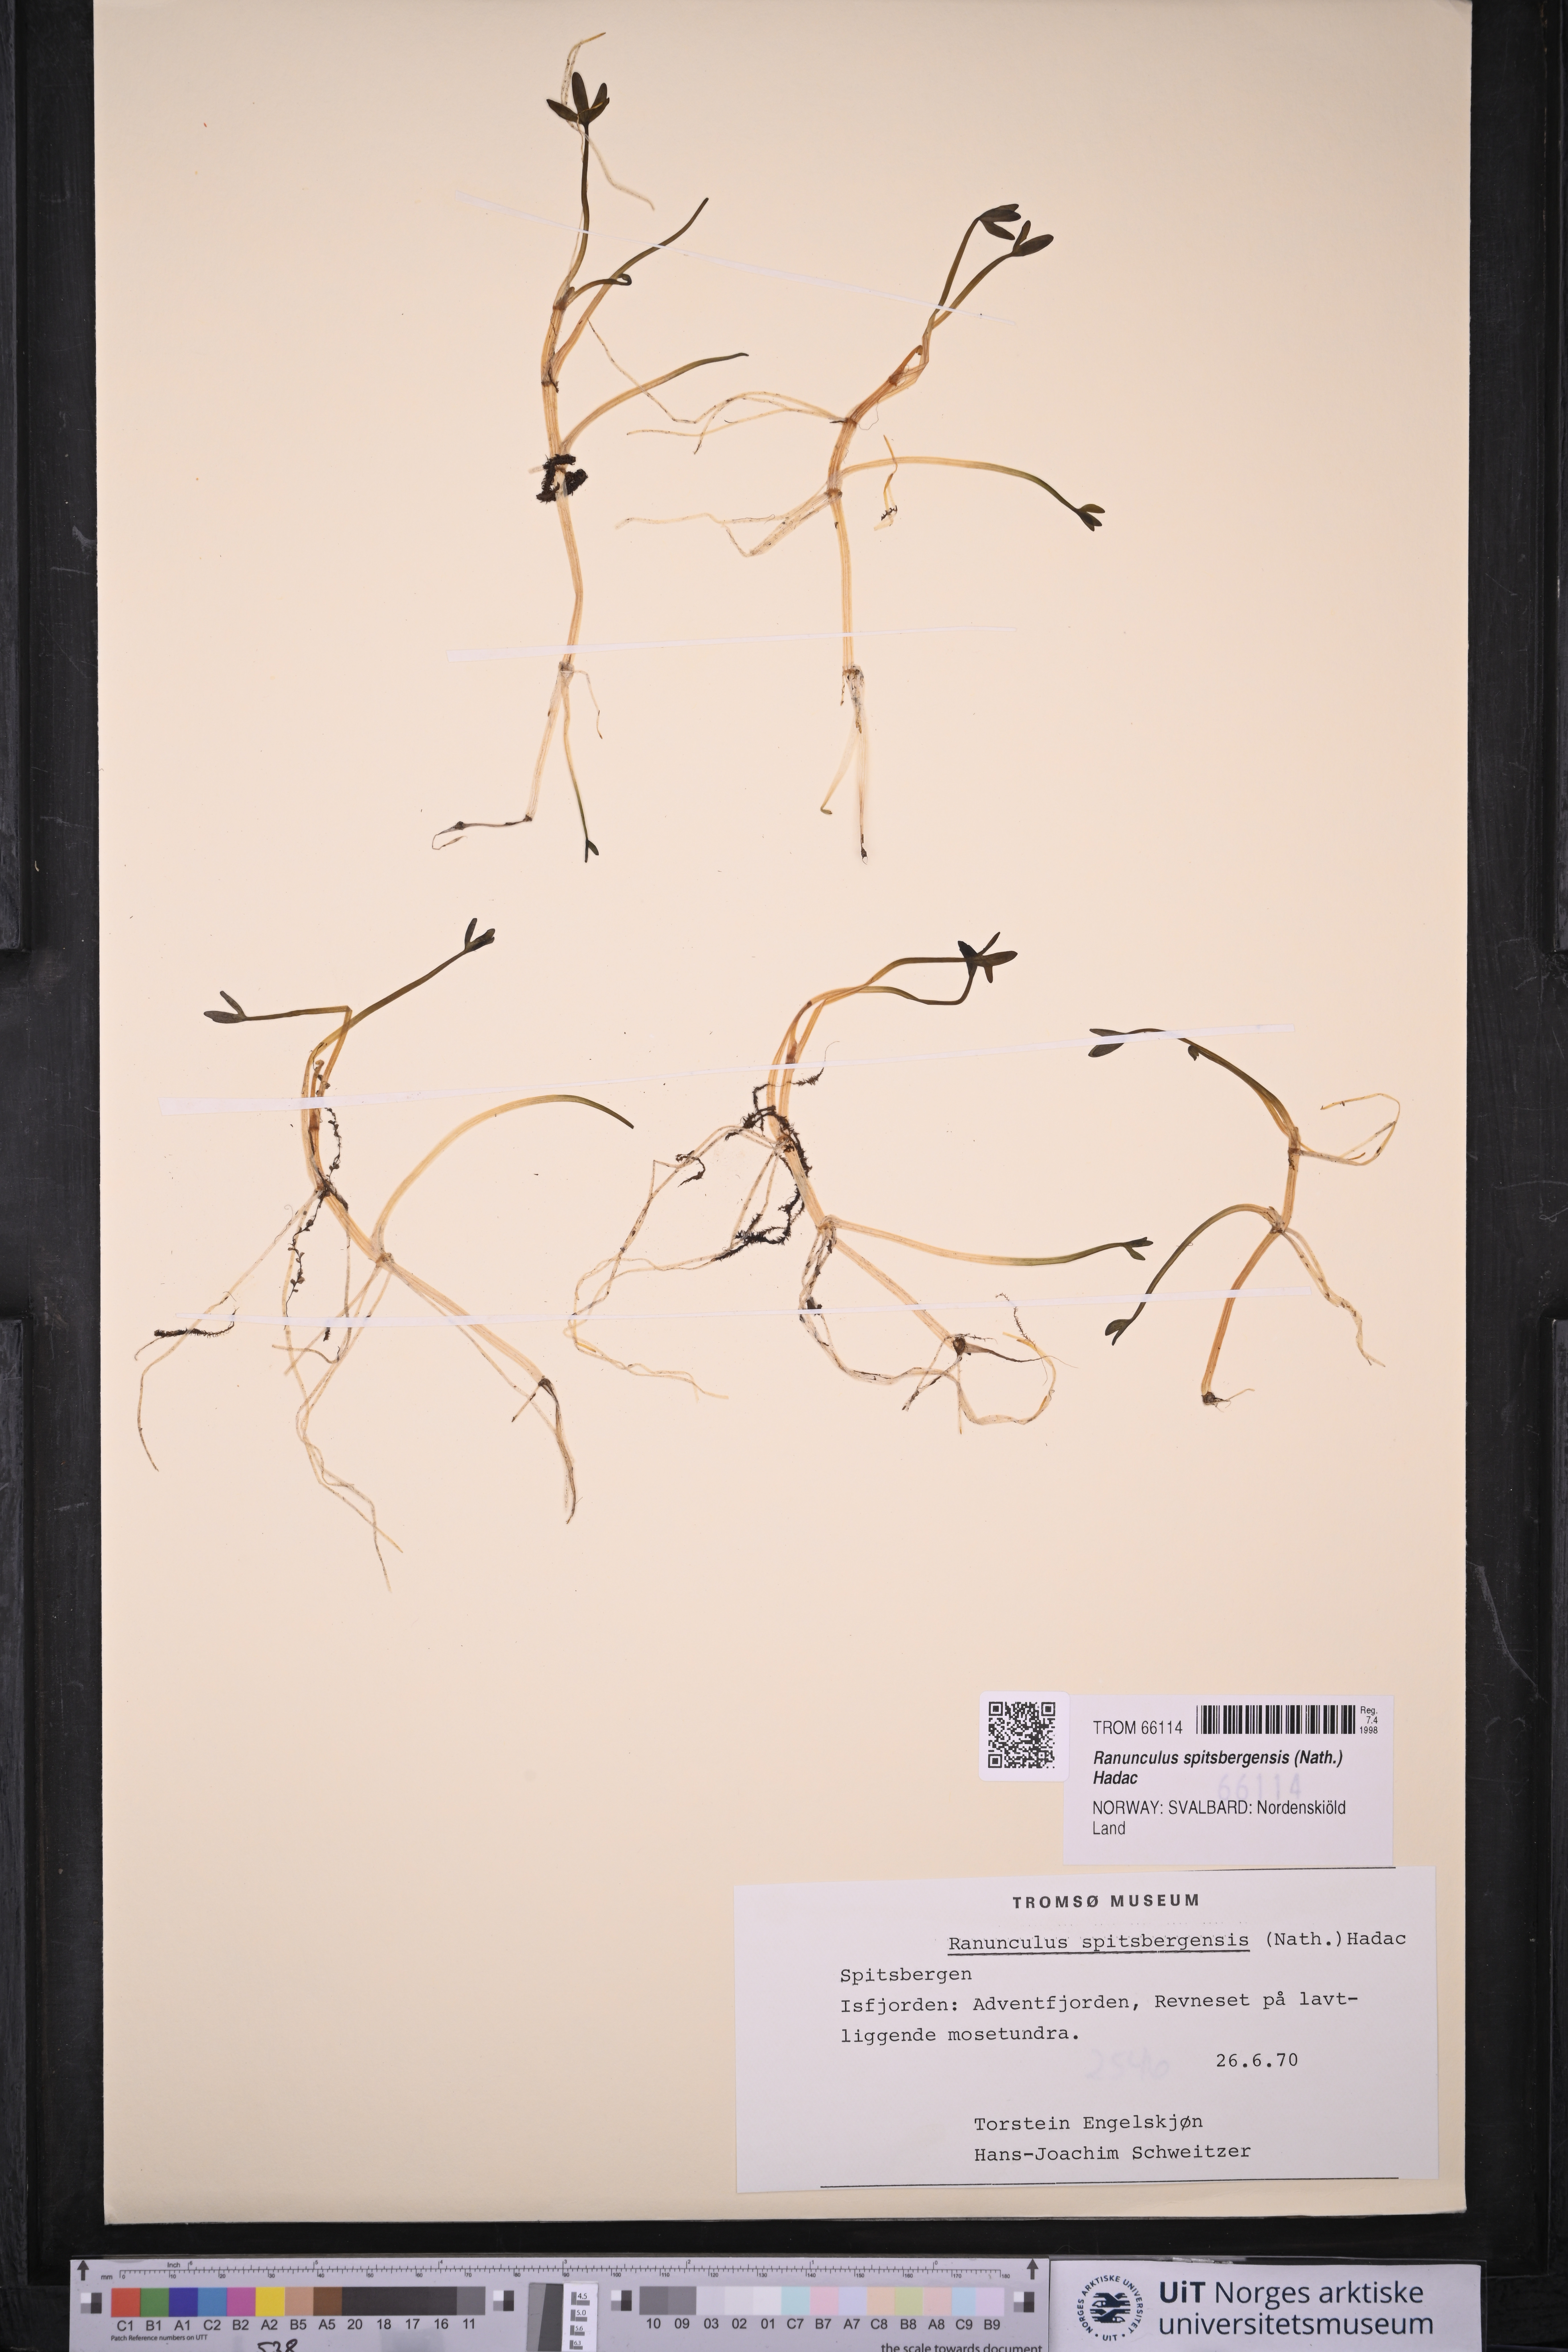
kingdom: Plantae
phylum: Tracheophyta
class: Magnoliopsida
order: Ranunculales
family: Ranunculaceae
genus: Coptidium
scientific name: Coptidium spitsbergense
